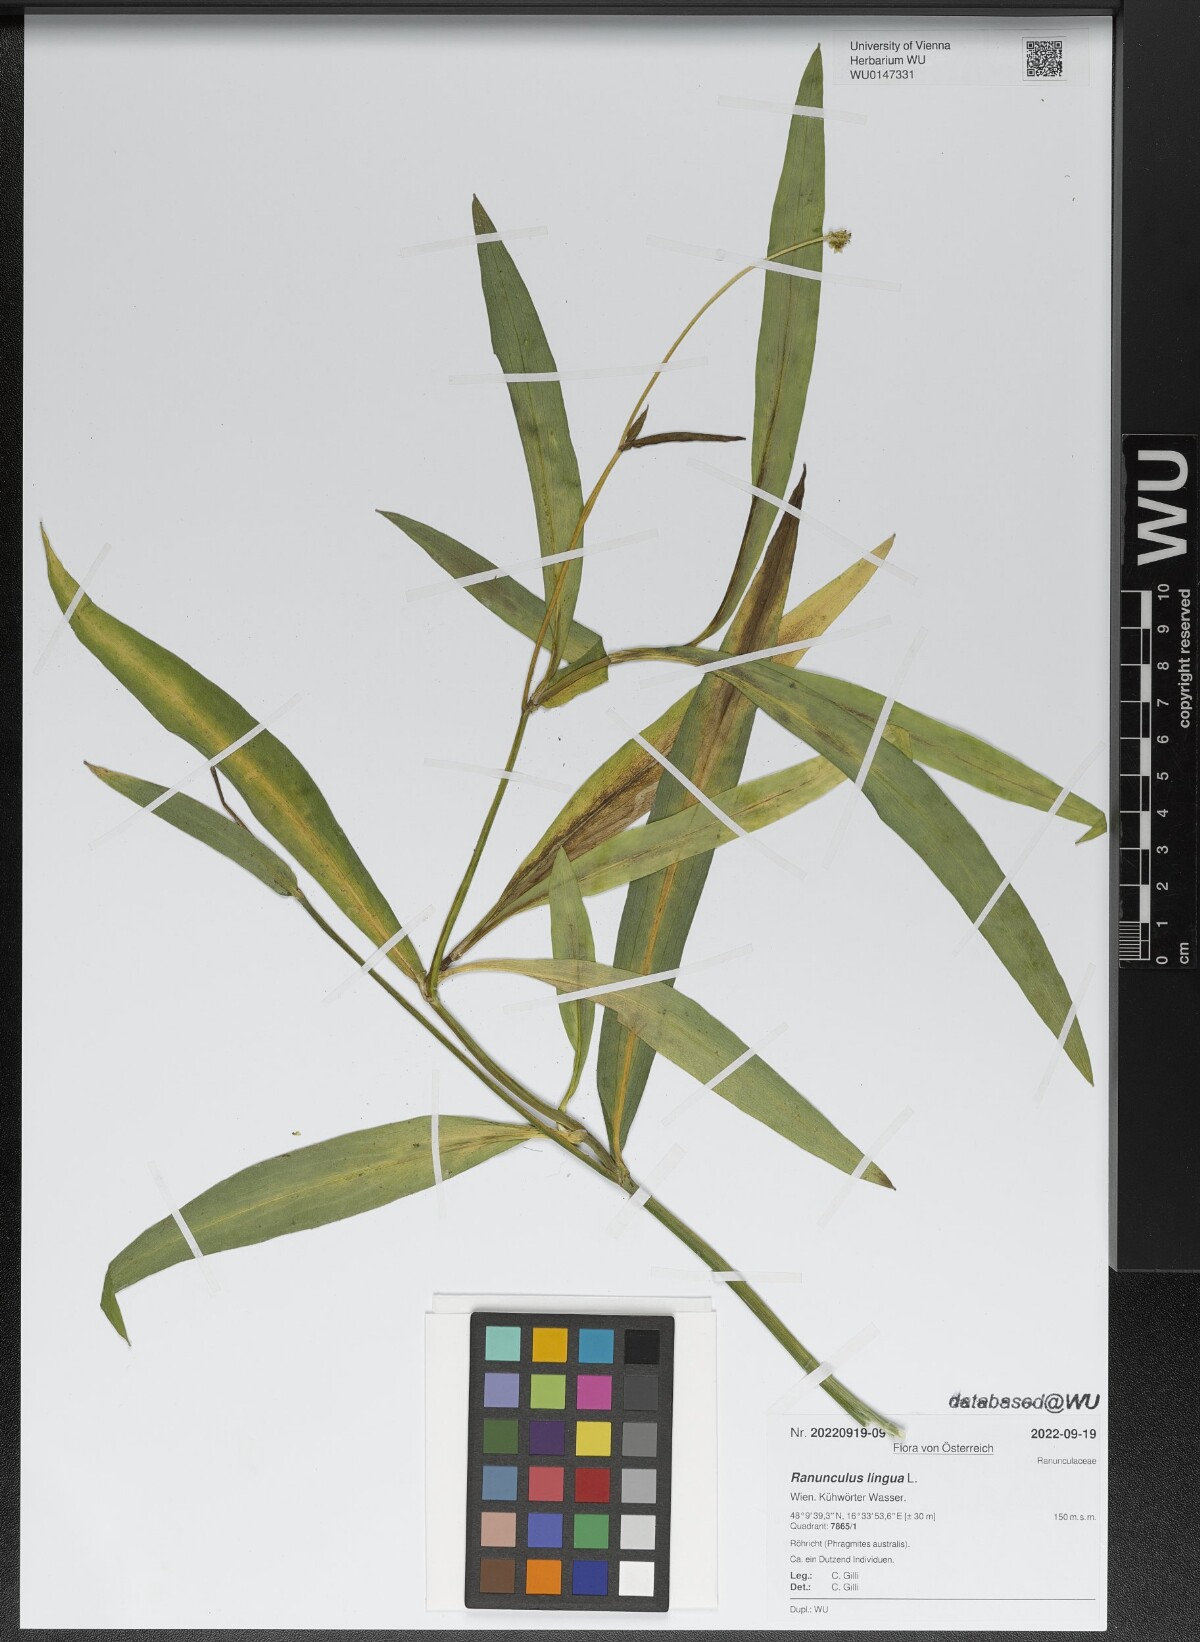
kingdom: Plantae
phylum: Tracheophyta
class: Magnoliopsida
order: Ranunculales
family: Ranunculaceae
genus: Ranunculus
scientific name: Ranunculus lingua
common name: Greater spearwort
